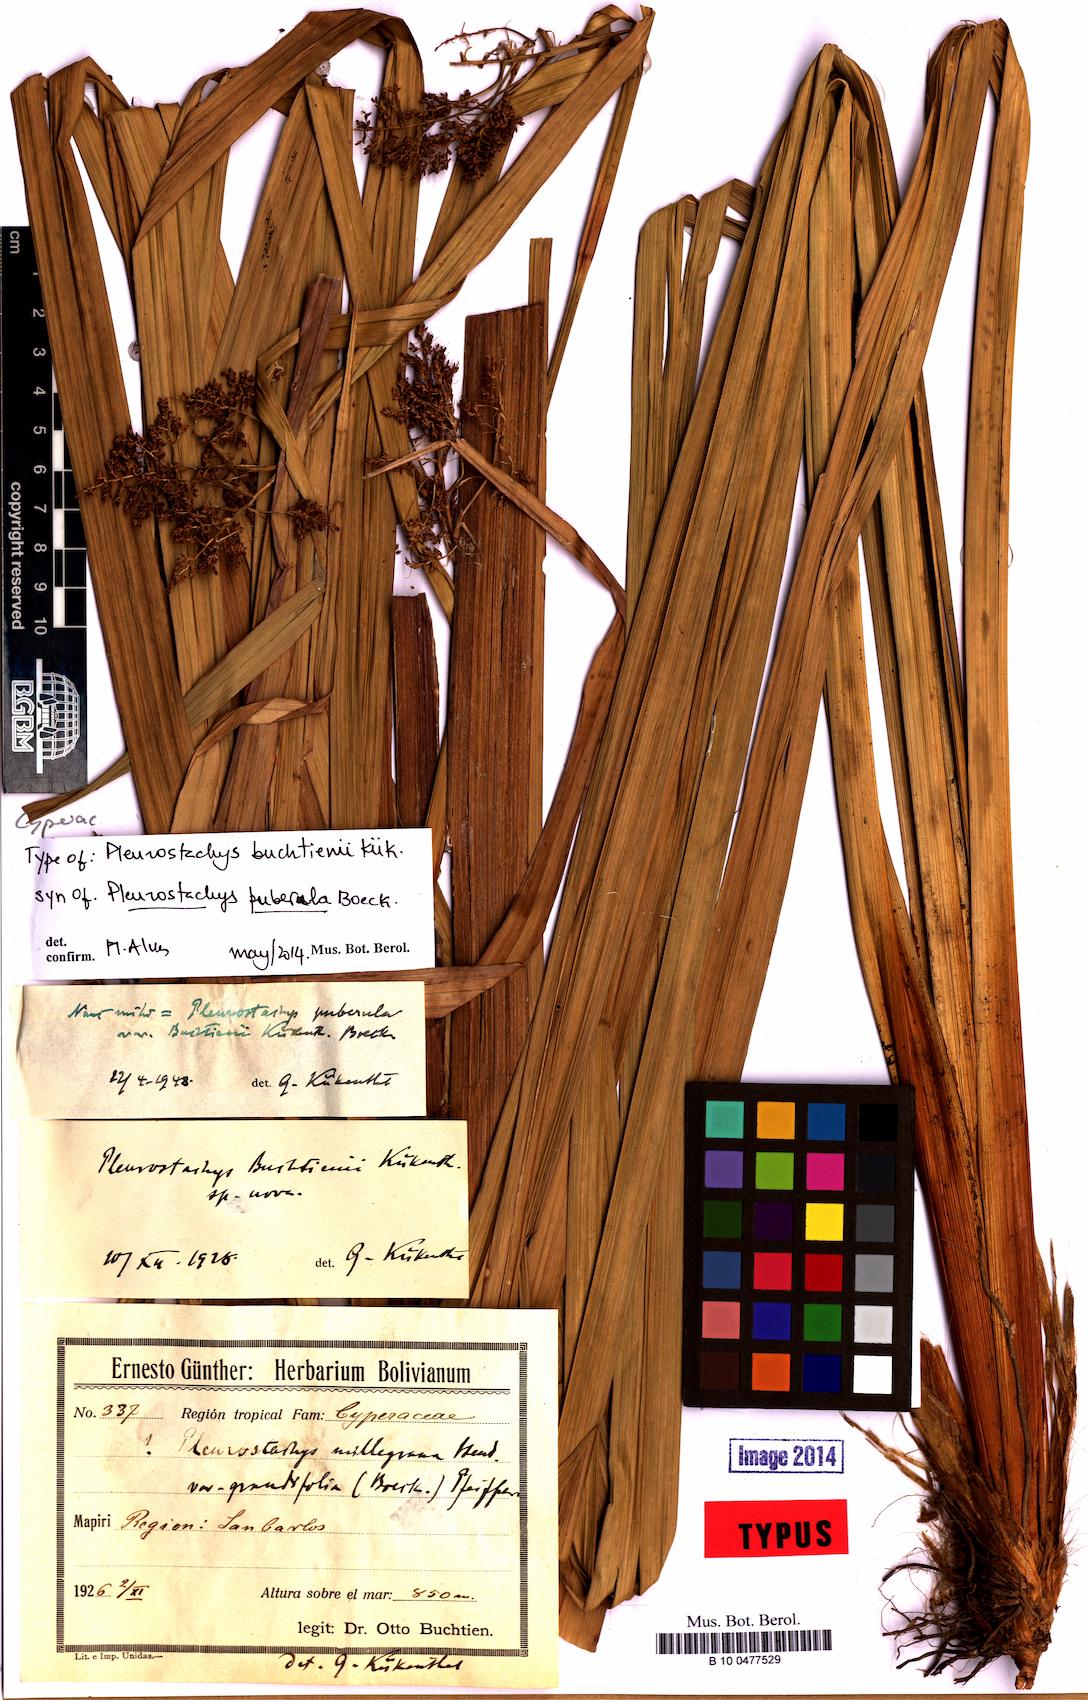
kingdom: Plantae
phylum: Tracheophyta
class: Liliopsida
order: Poales
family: Cyperaceae
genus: Rhynchospora
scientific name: Rhynchospora orbignyana
